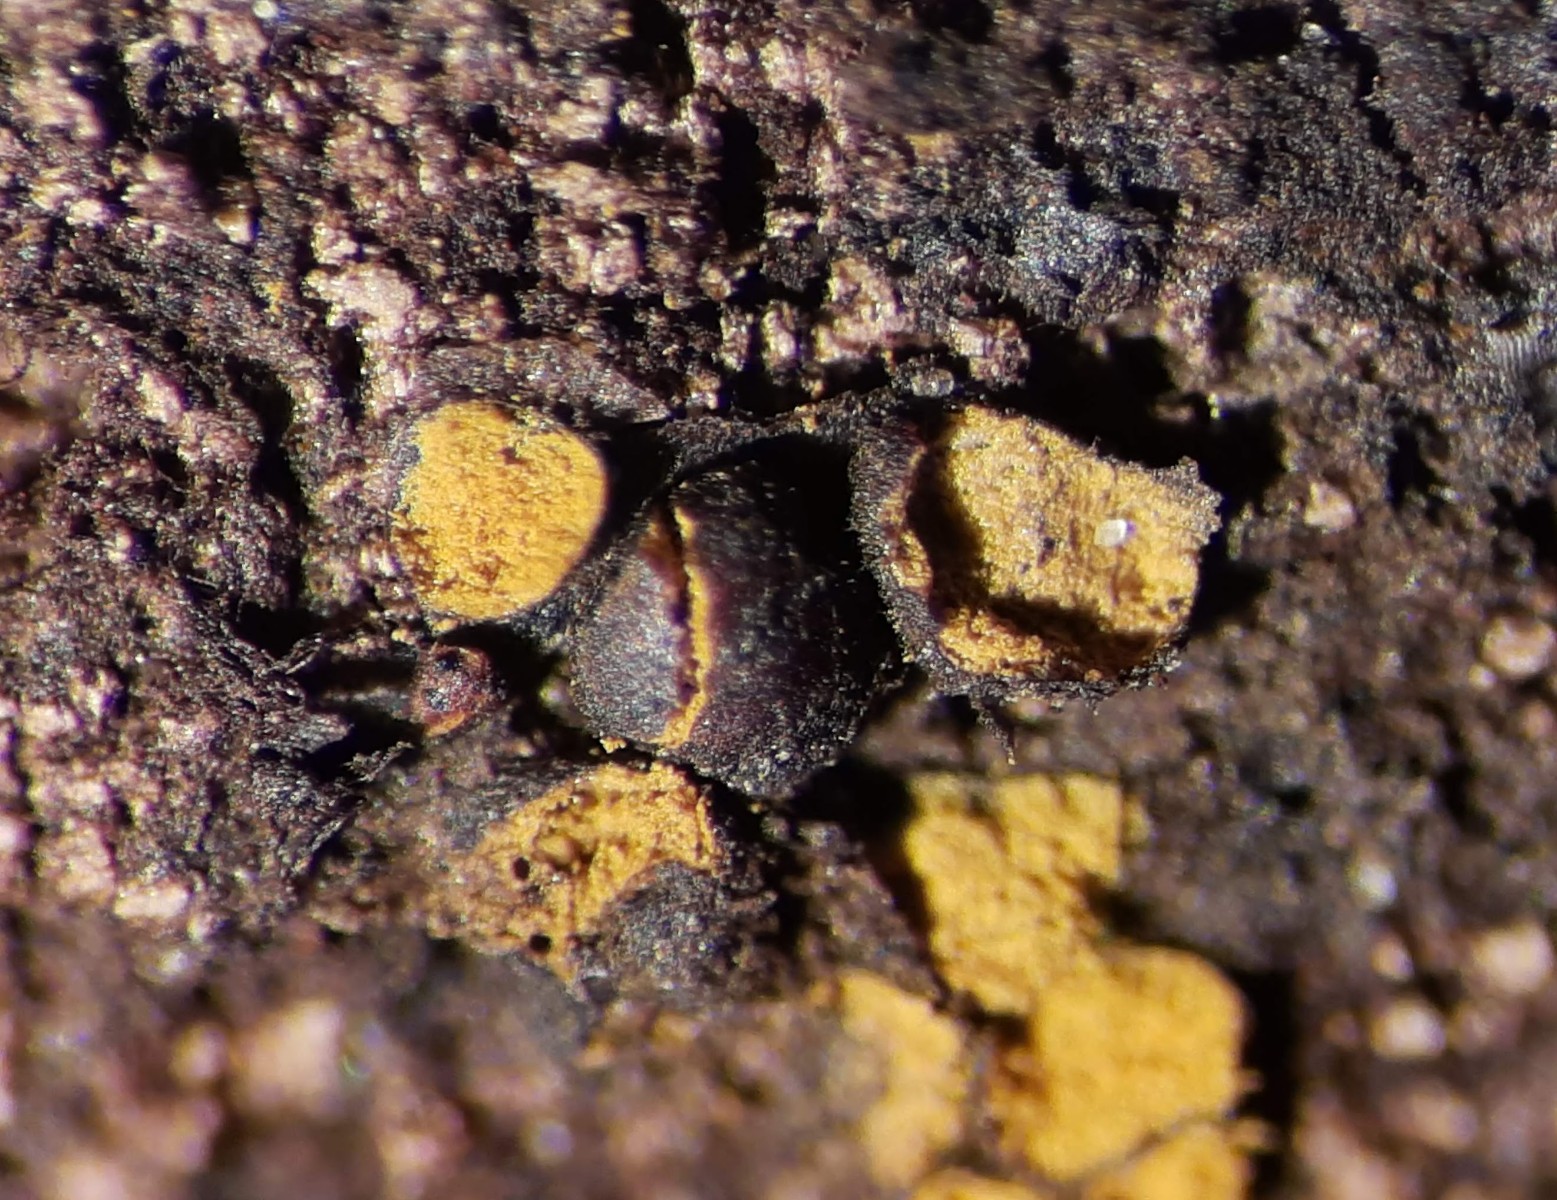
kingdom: Protozoa
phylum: Mycetozoa
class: Myxomycetes
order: Trichiales
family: Trichiaceae
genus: Perichaena
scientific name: Perichaena corticalis
